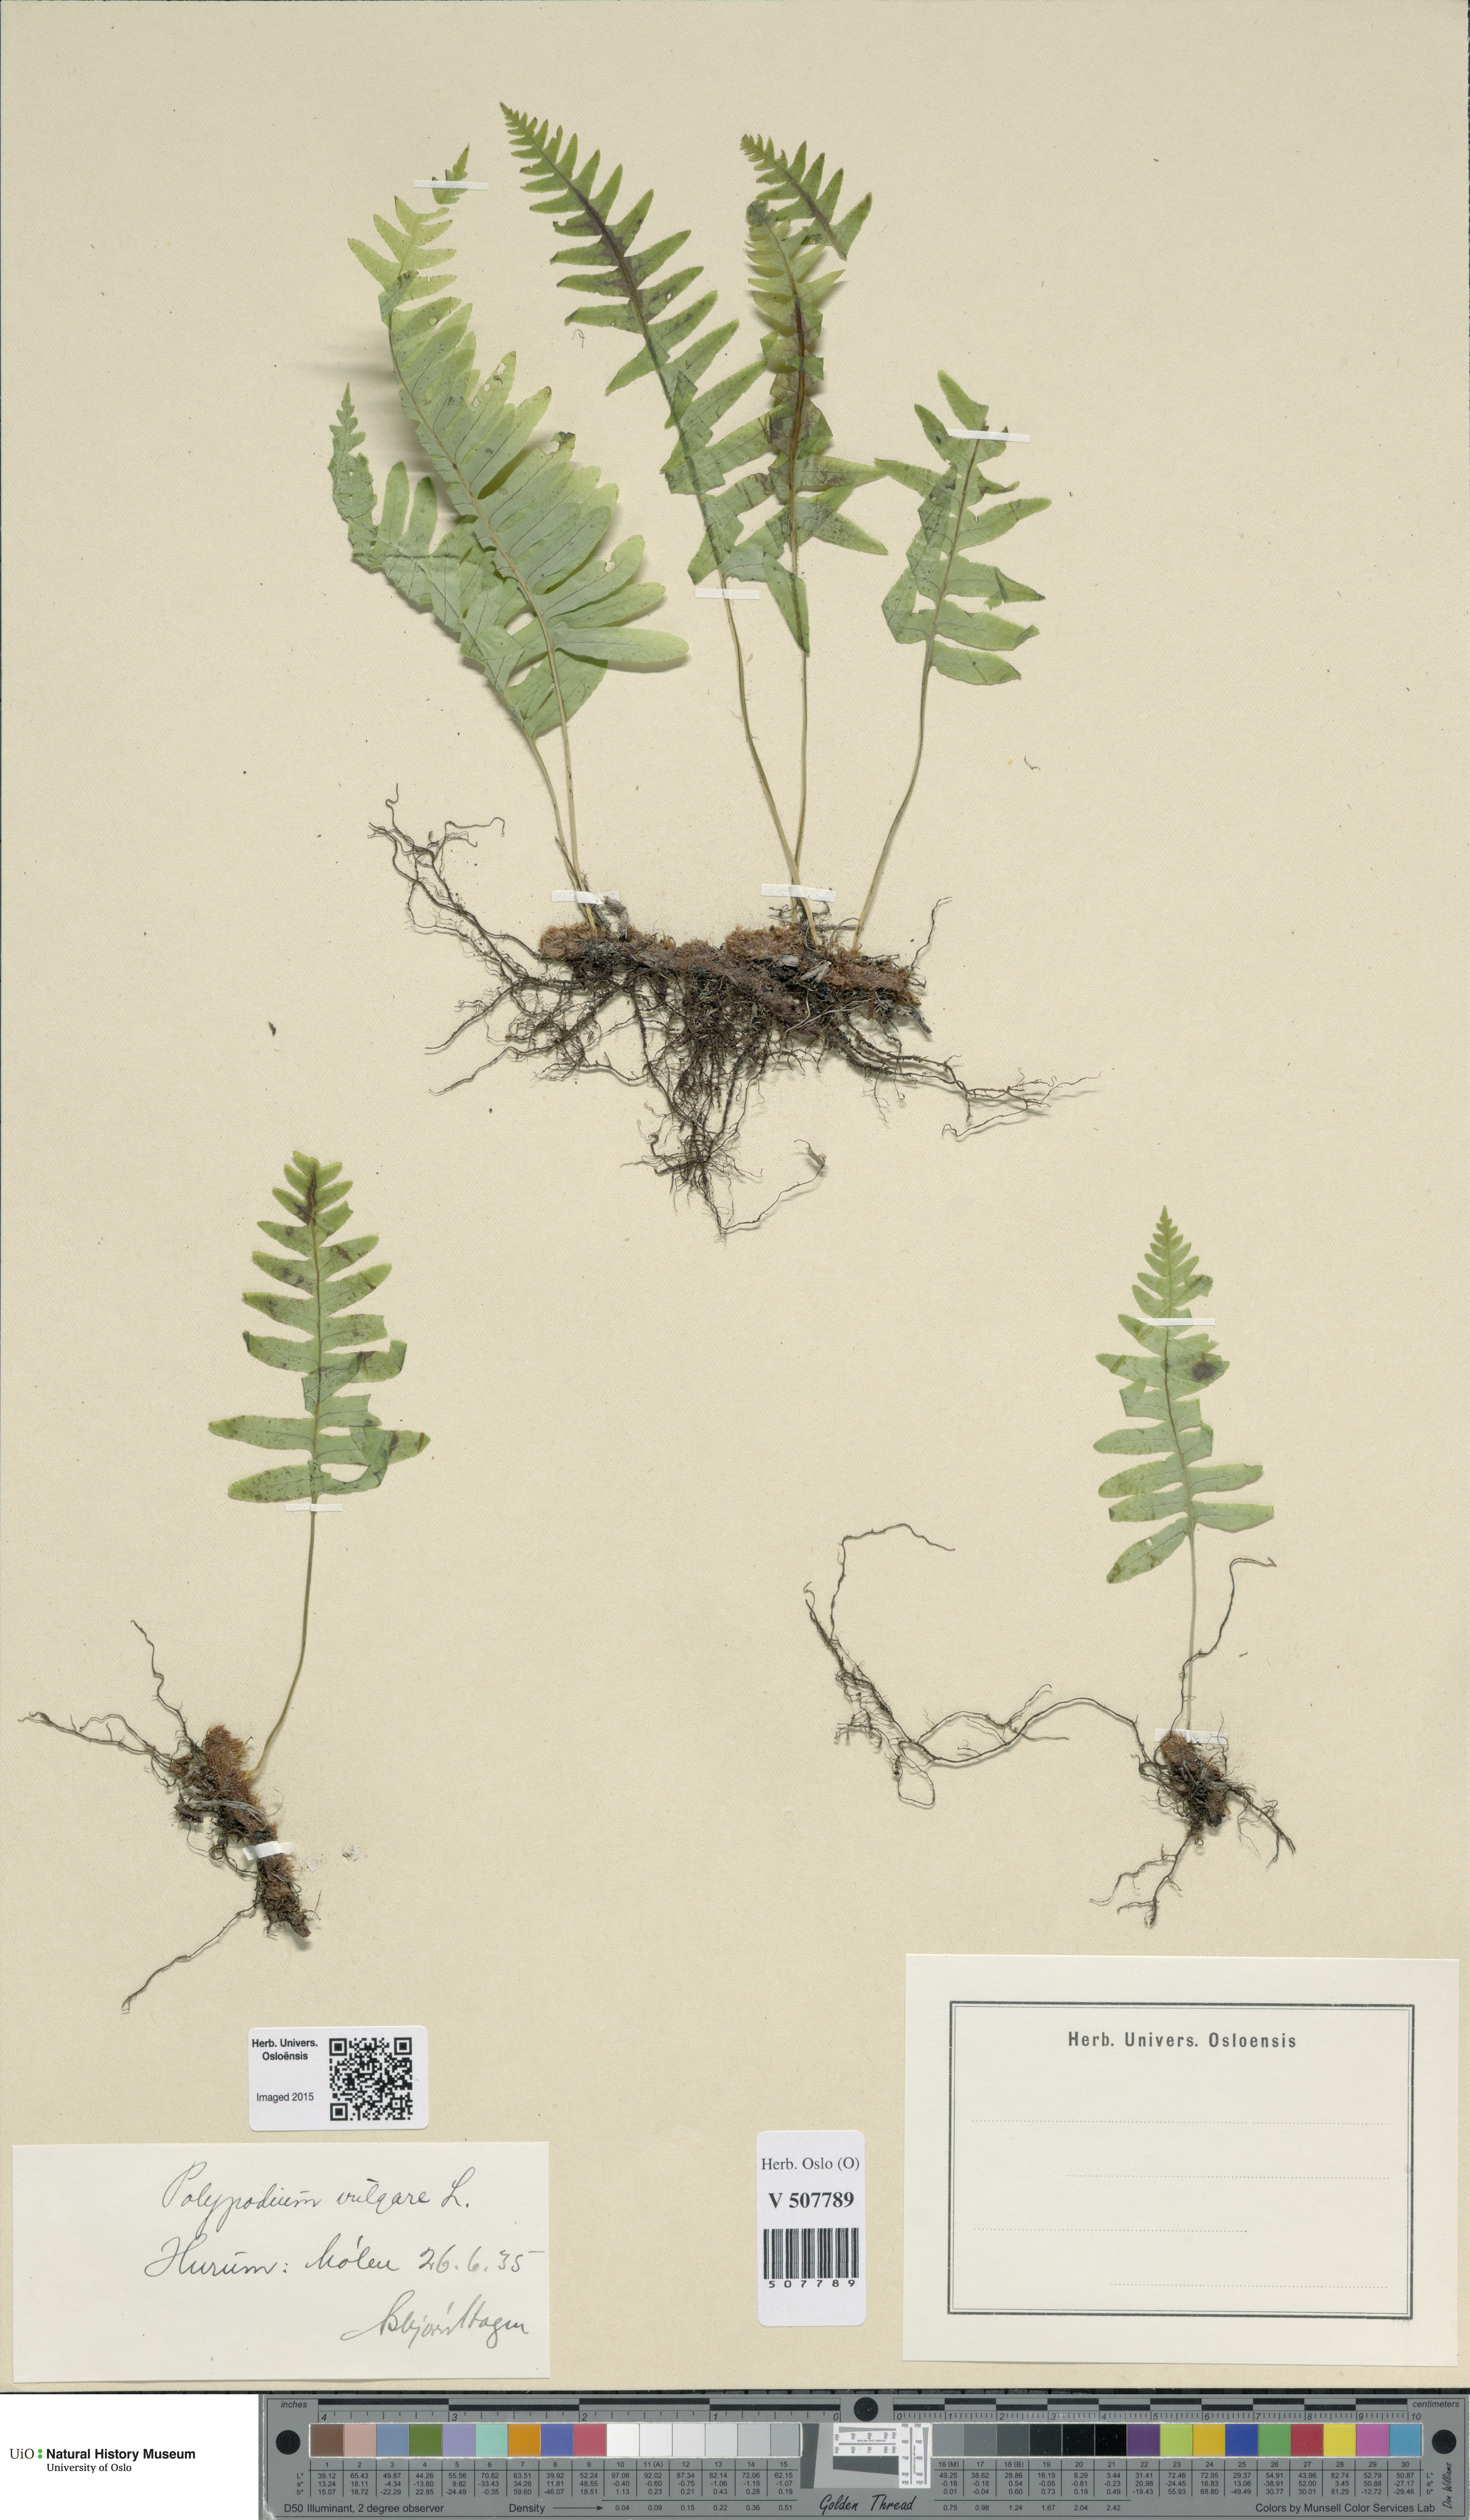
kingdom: Plantae
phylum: Tracheophyta
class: Polypodiopsida
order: Polypodiales
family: Polypodiaceae
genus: Polypodium
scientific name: Polypodium vulgare
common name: Common polypody
